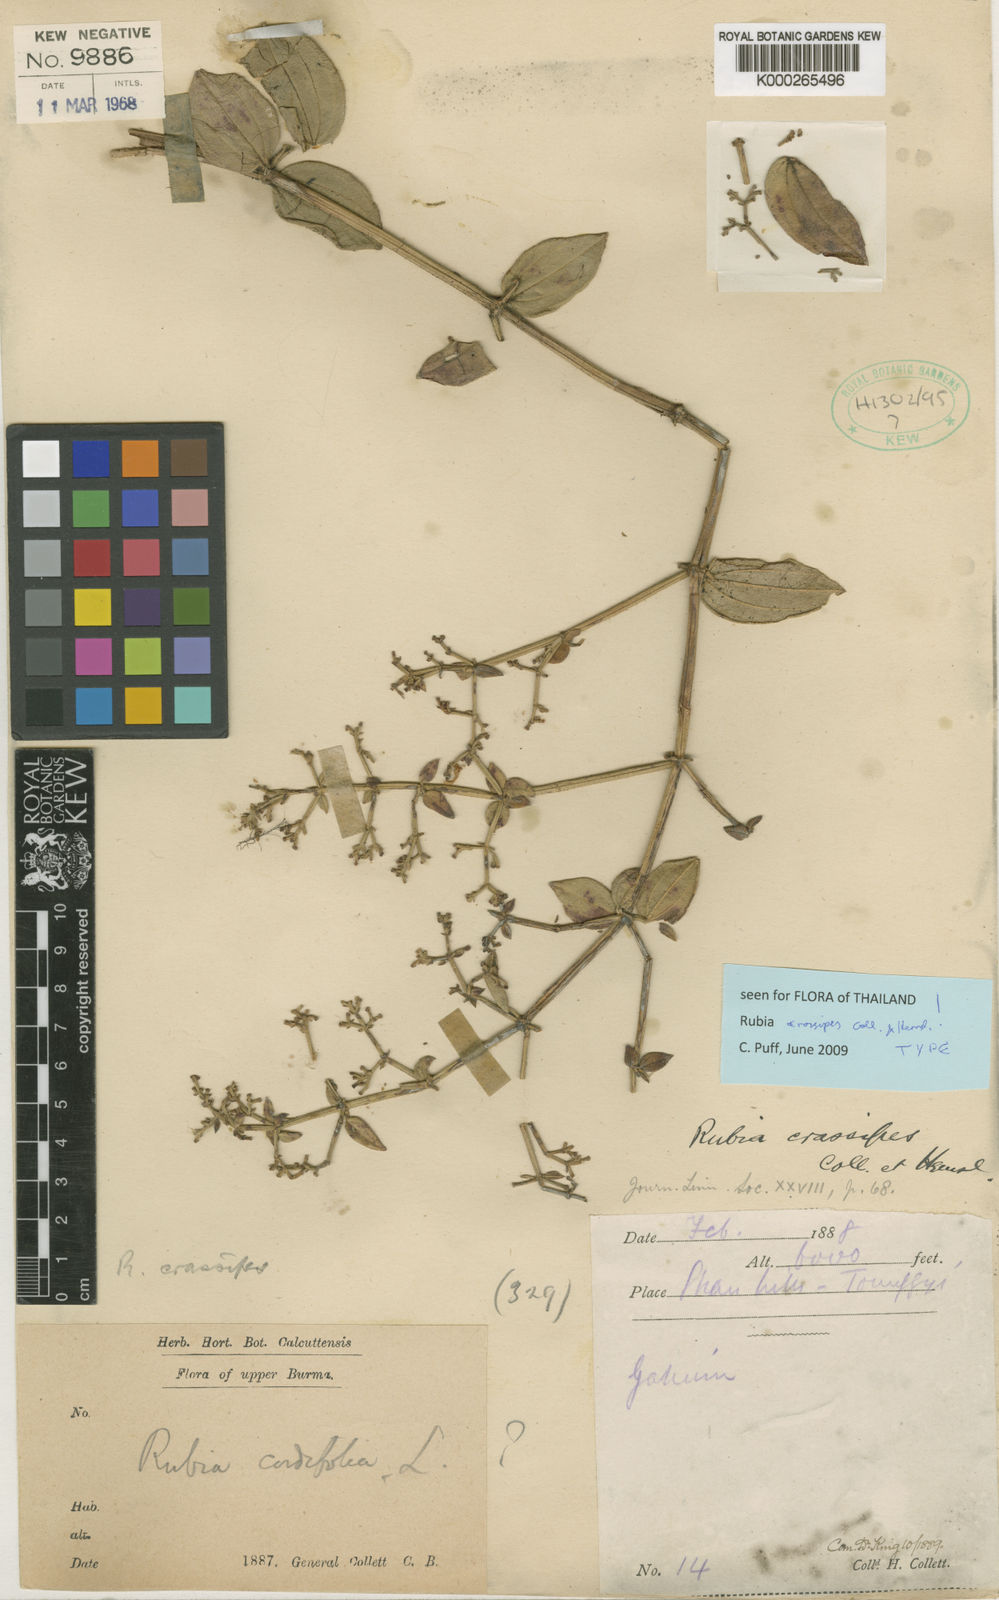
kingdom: Plantae
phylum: Tracheophyta
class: Magnoliopsida
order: Gentianales
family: Rubiaceae
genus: Rubia
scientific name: Rubia crassipes
